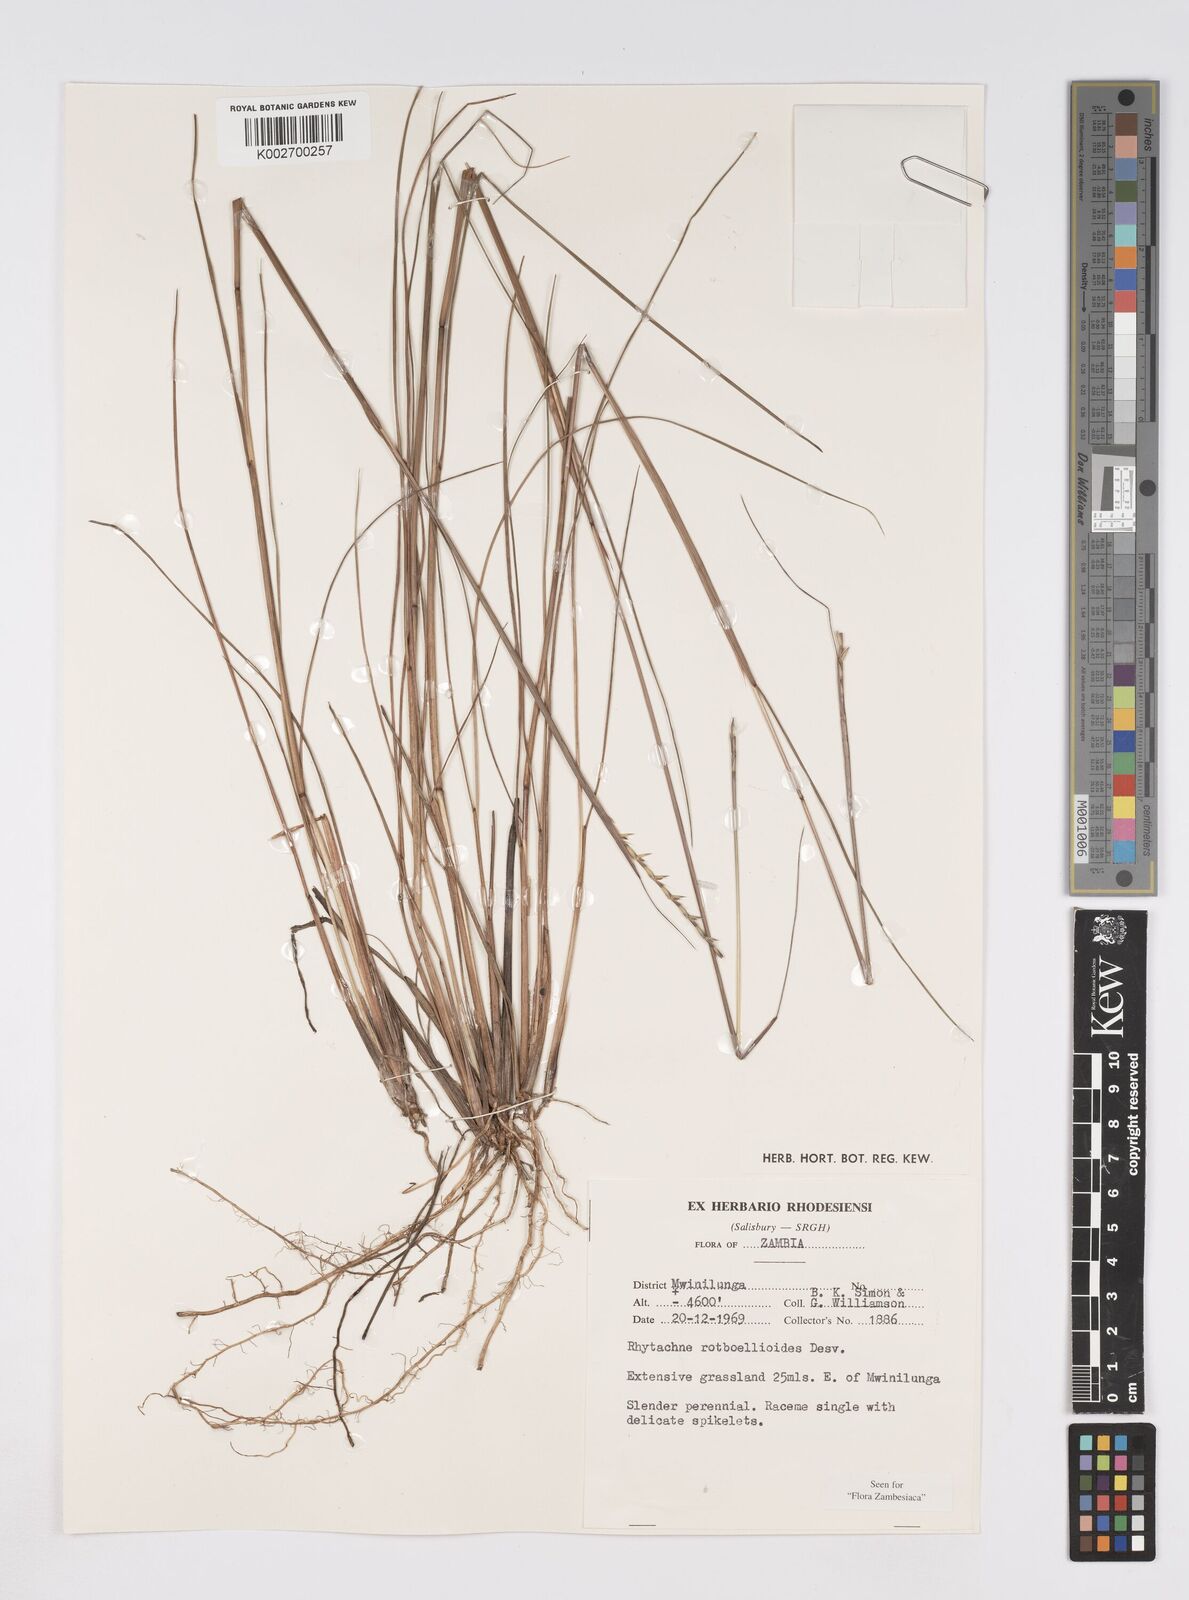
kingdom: Plantae
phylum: Tracheophyta
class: Liliopsida
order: Poales
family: Poaceae
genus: Rhytachne
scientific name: Rhytachne rottboellioides
